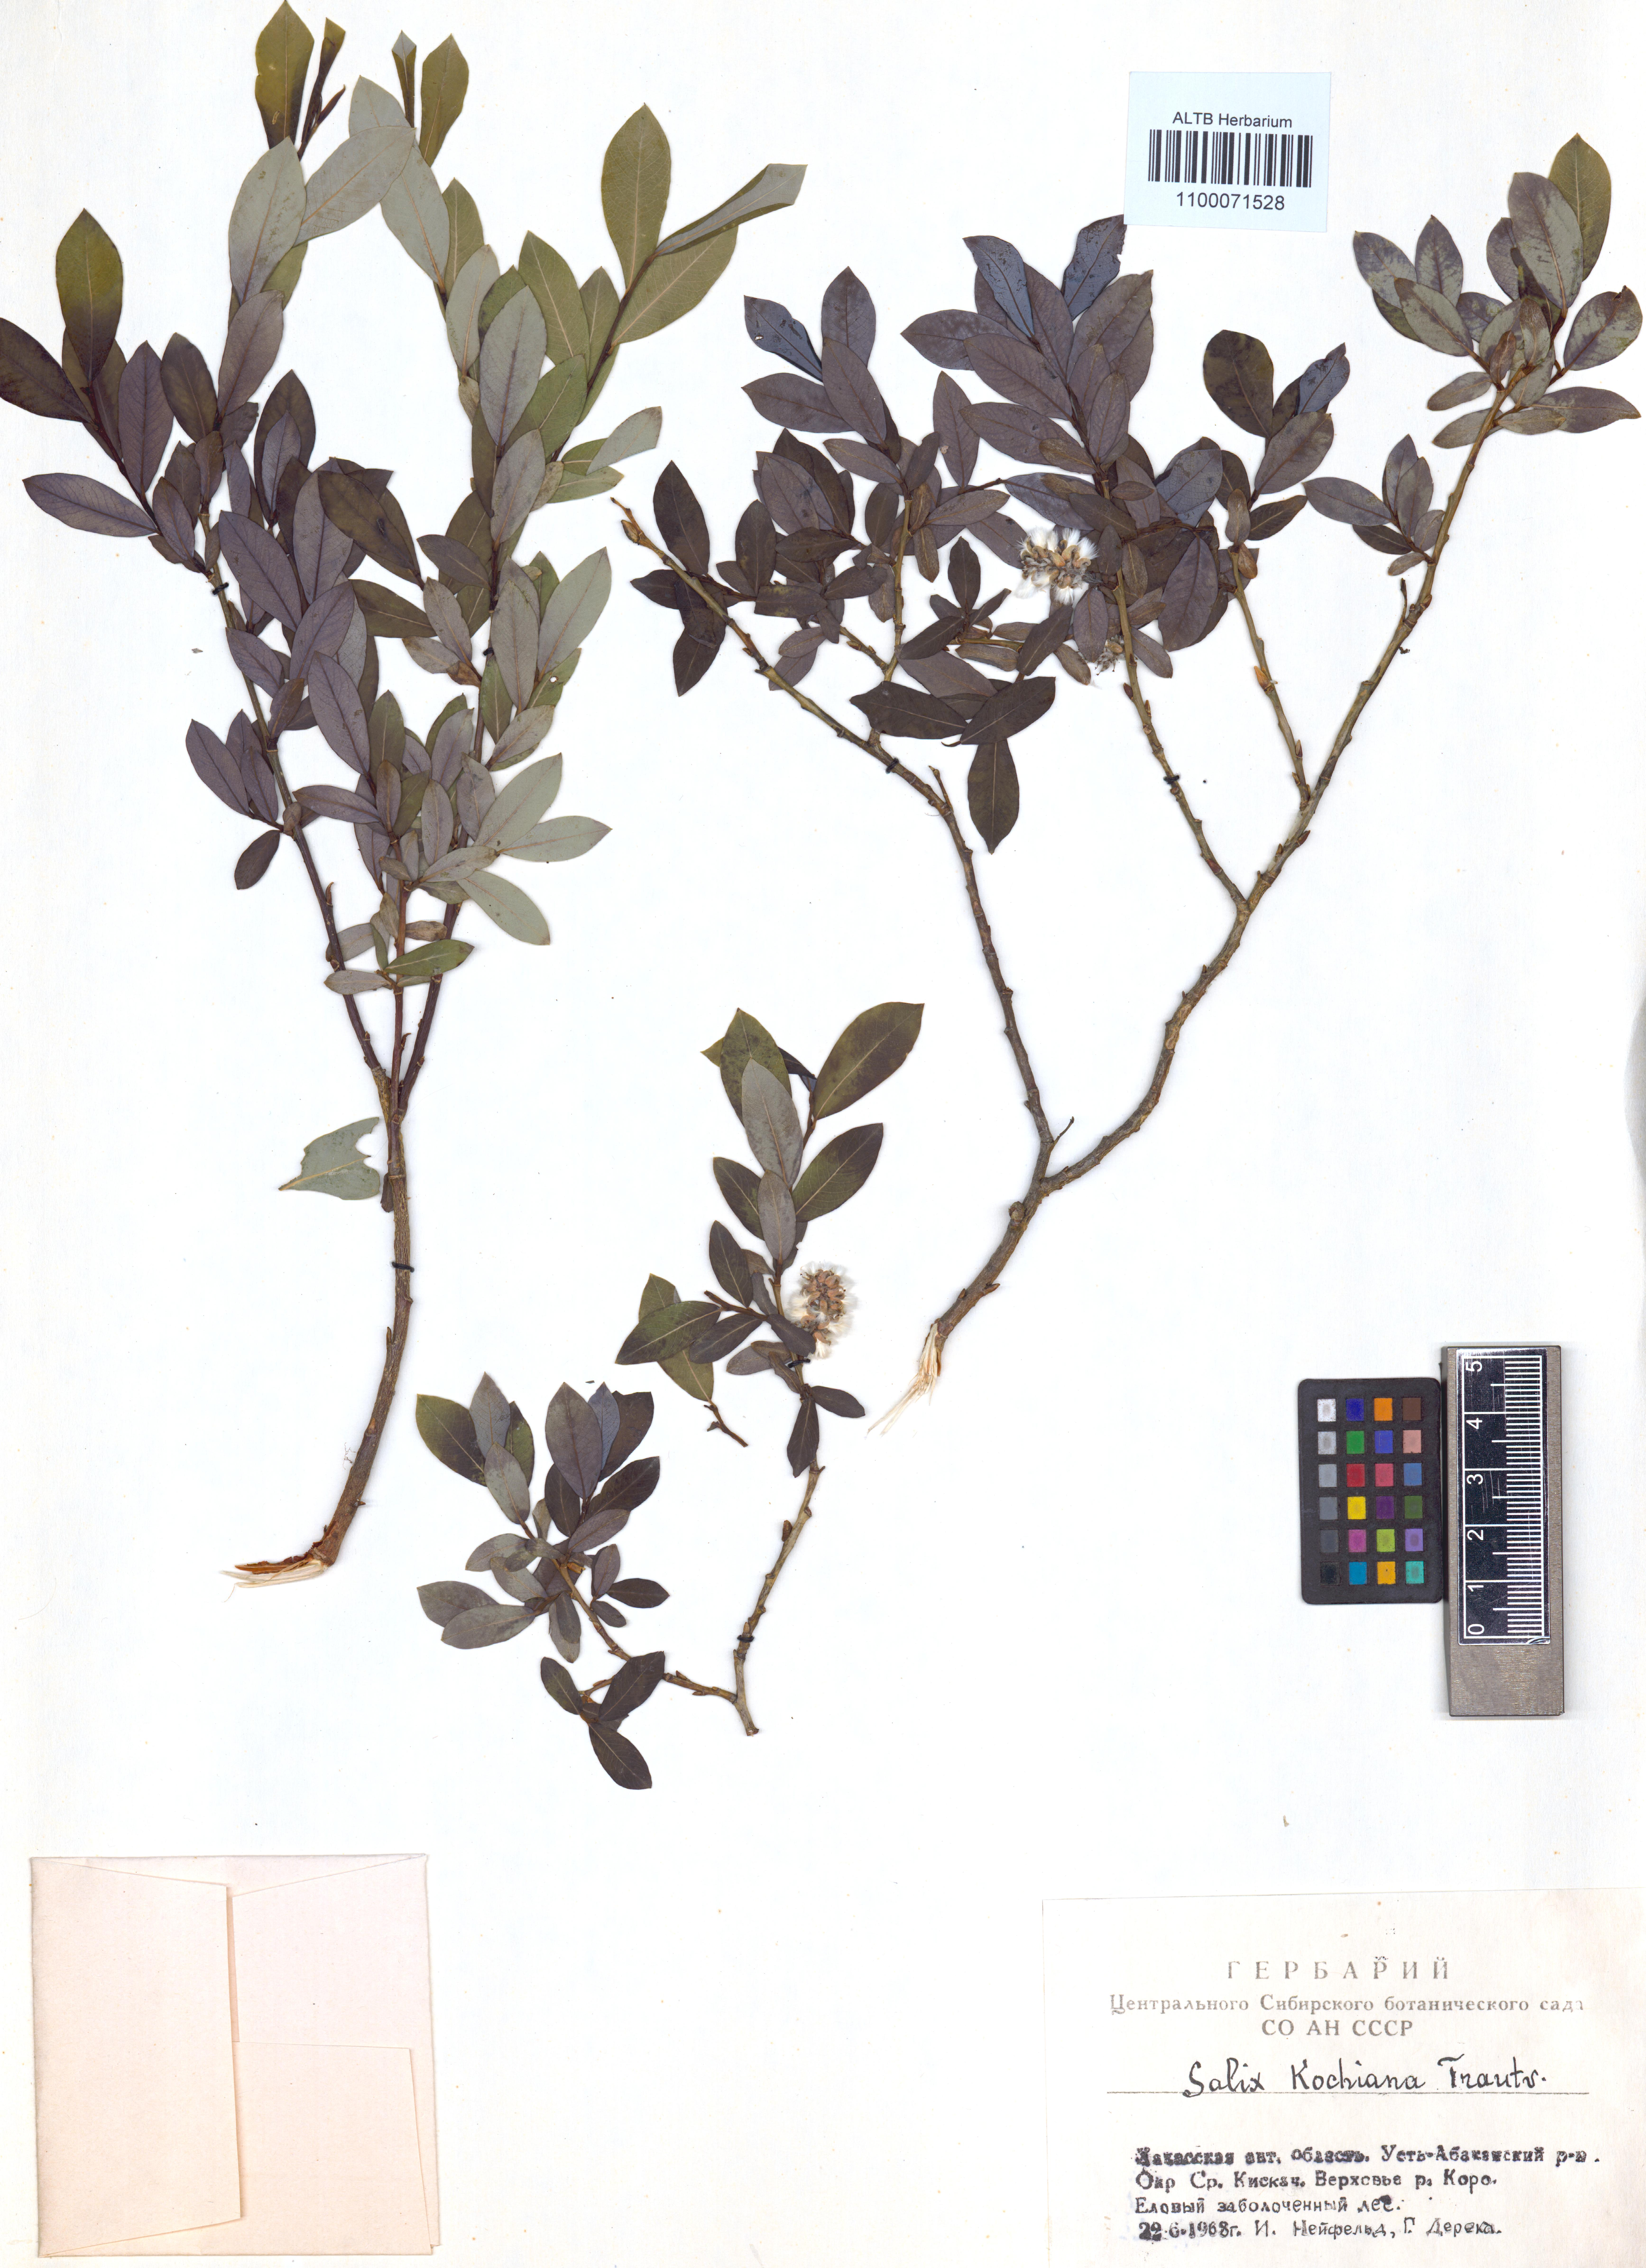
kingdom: Plantae
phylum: Tracheophyta
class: Magnoliopsida
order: Malpighiales
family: Salicaceae
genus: Salix
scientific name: Salix kochiana
